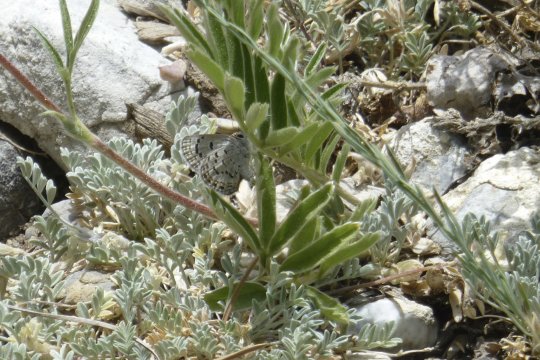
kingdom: Animalia
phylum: Arthropoda
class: Insecta
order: Lepidoptera
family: Lycaenidae
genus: Icaricia
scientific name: Icaricia shasta
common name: Shasta Blue
